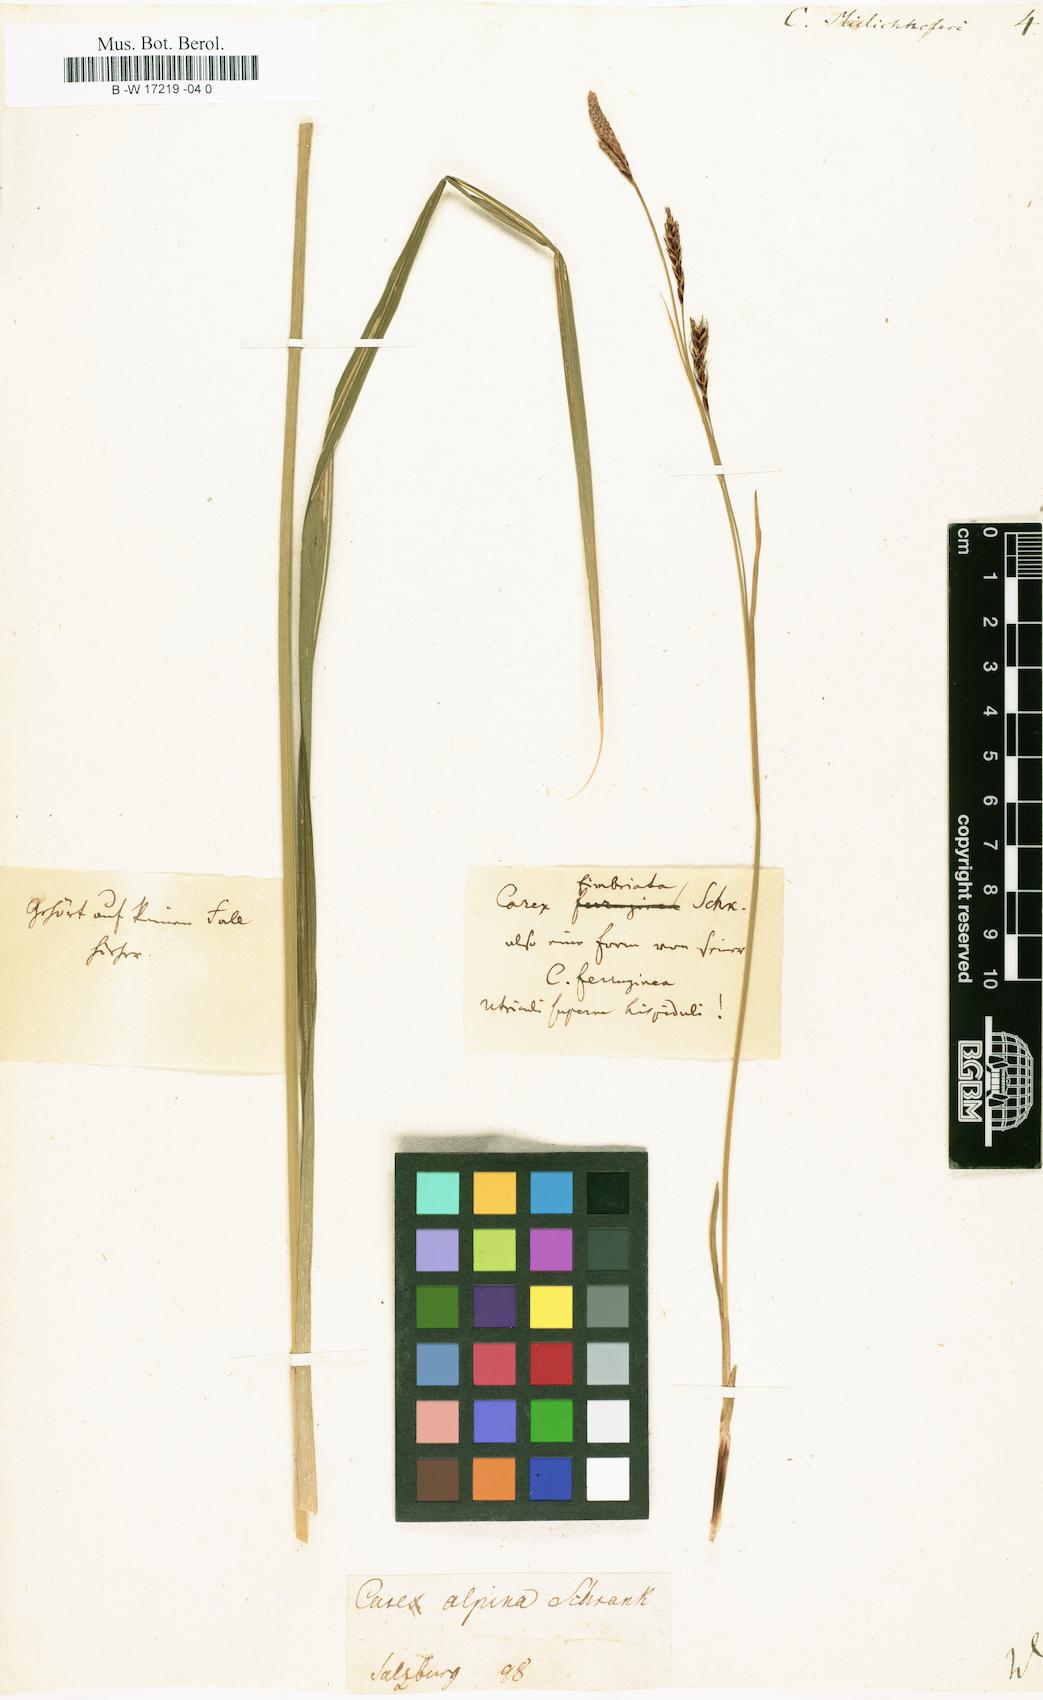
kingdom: Plantae
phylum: Tracheophyta
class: Liliopsida
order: Poales
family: Cyperaceae
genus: Carex
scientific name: Carex ferruginea
